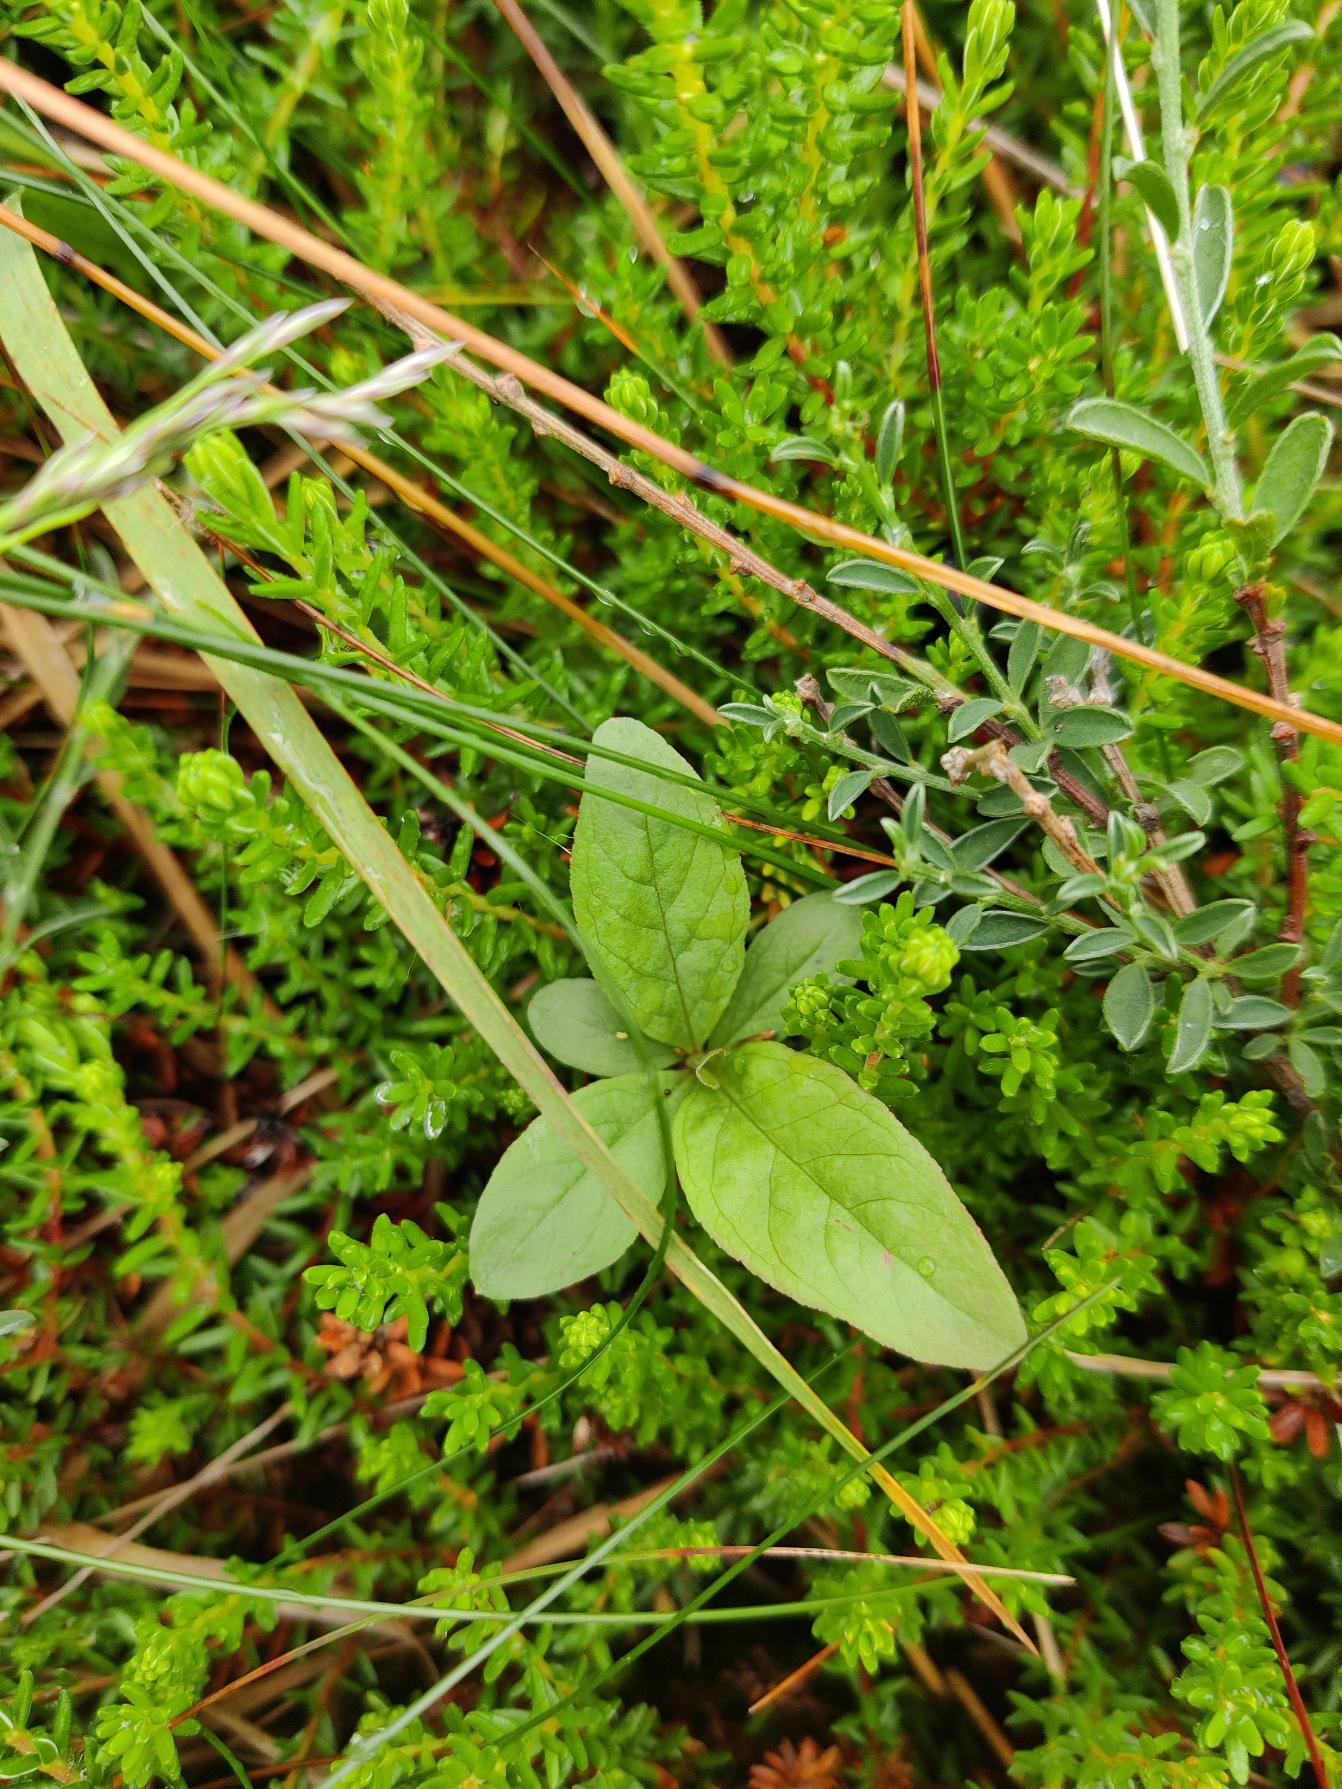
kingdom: Plantae
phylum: Tracheophyta
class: Magnoliopsida
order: Ericales
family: Primulaceae
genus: Lysimachia
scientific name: Lysimachia europaea
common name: Skovstjerne
